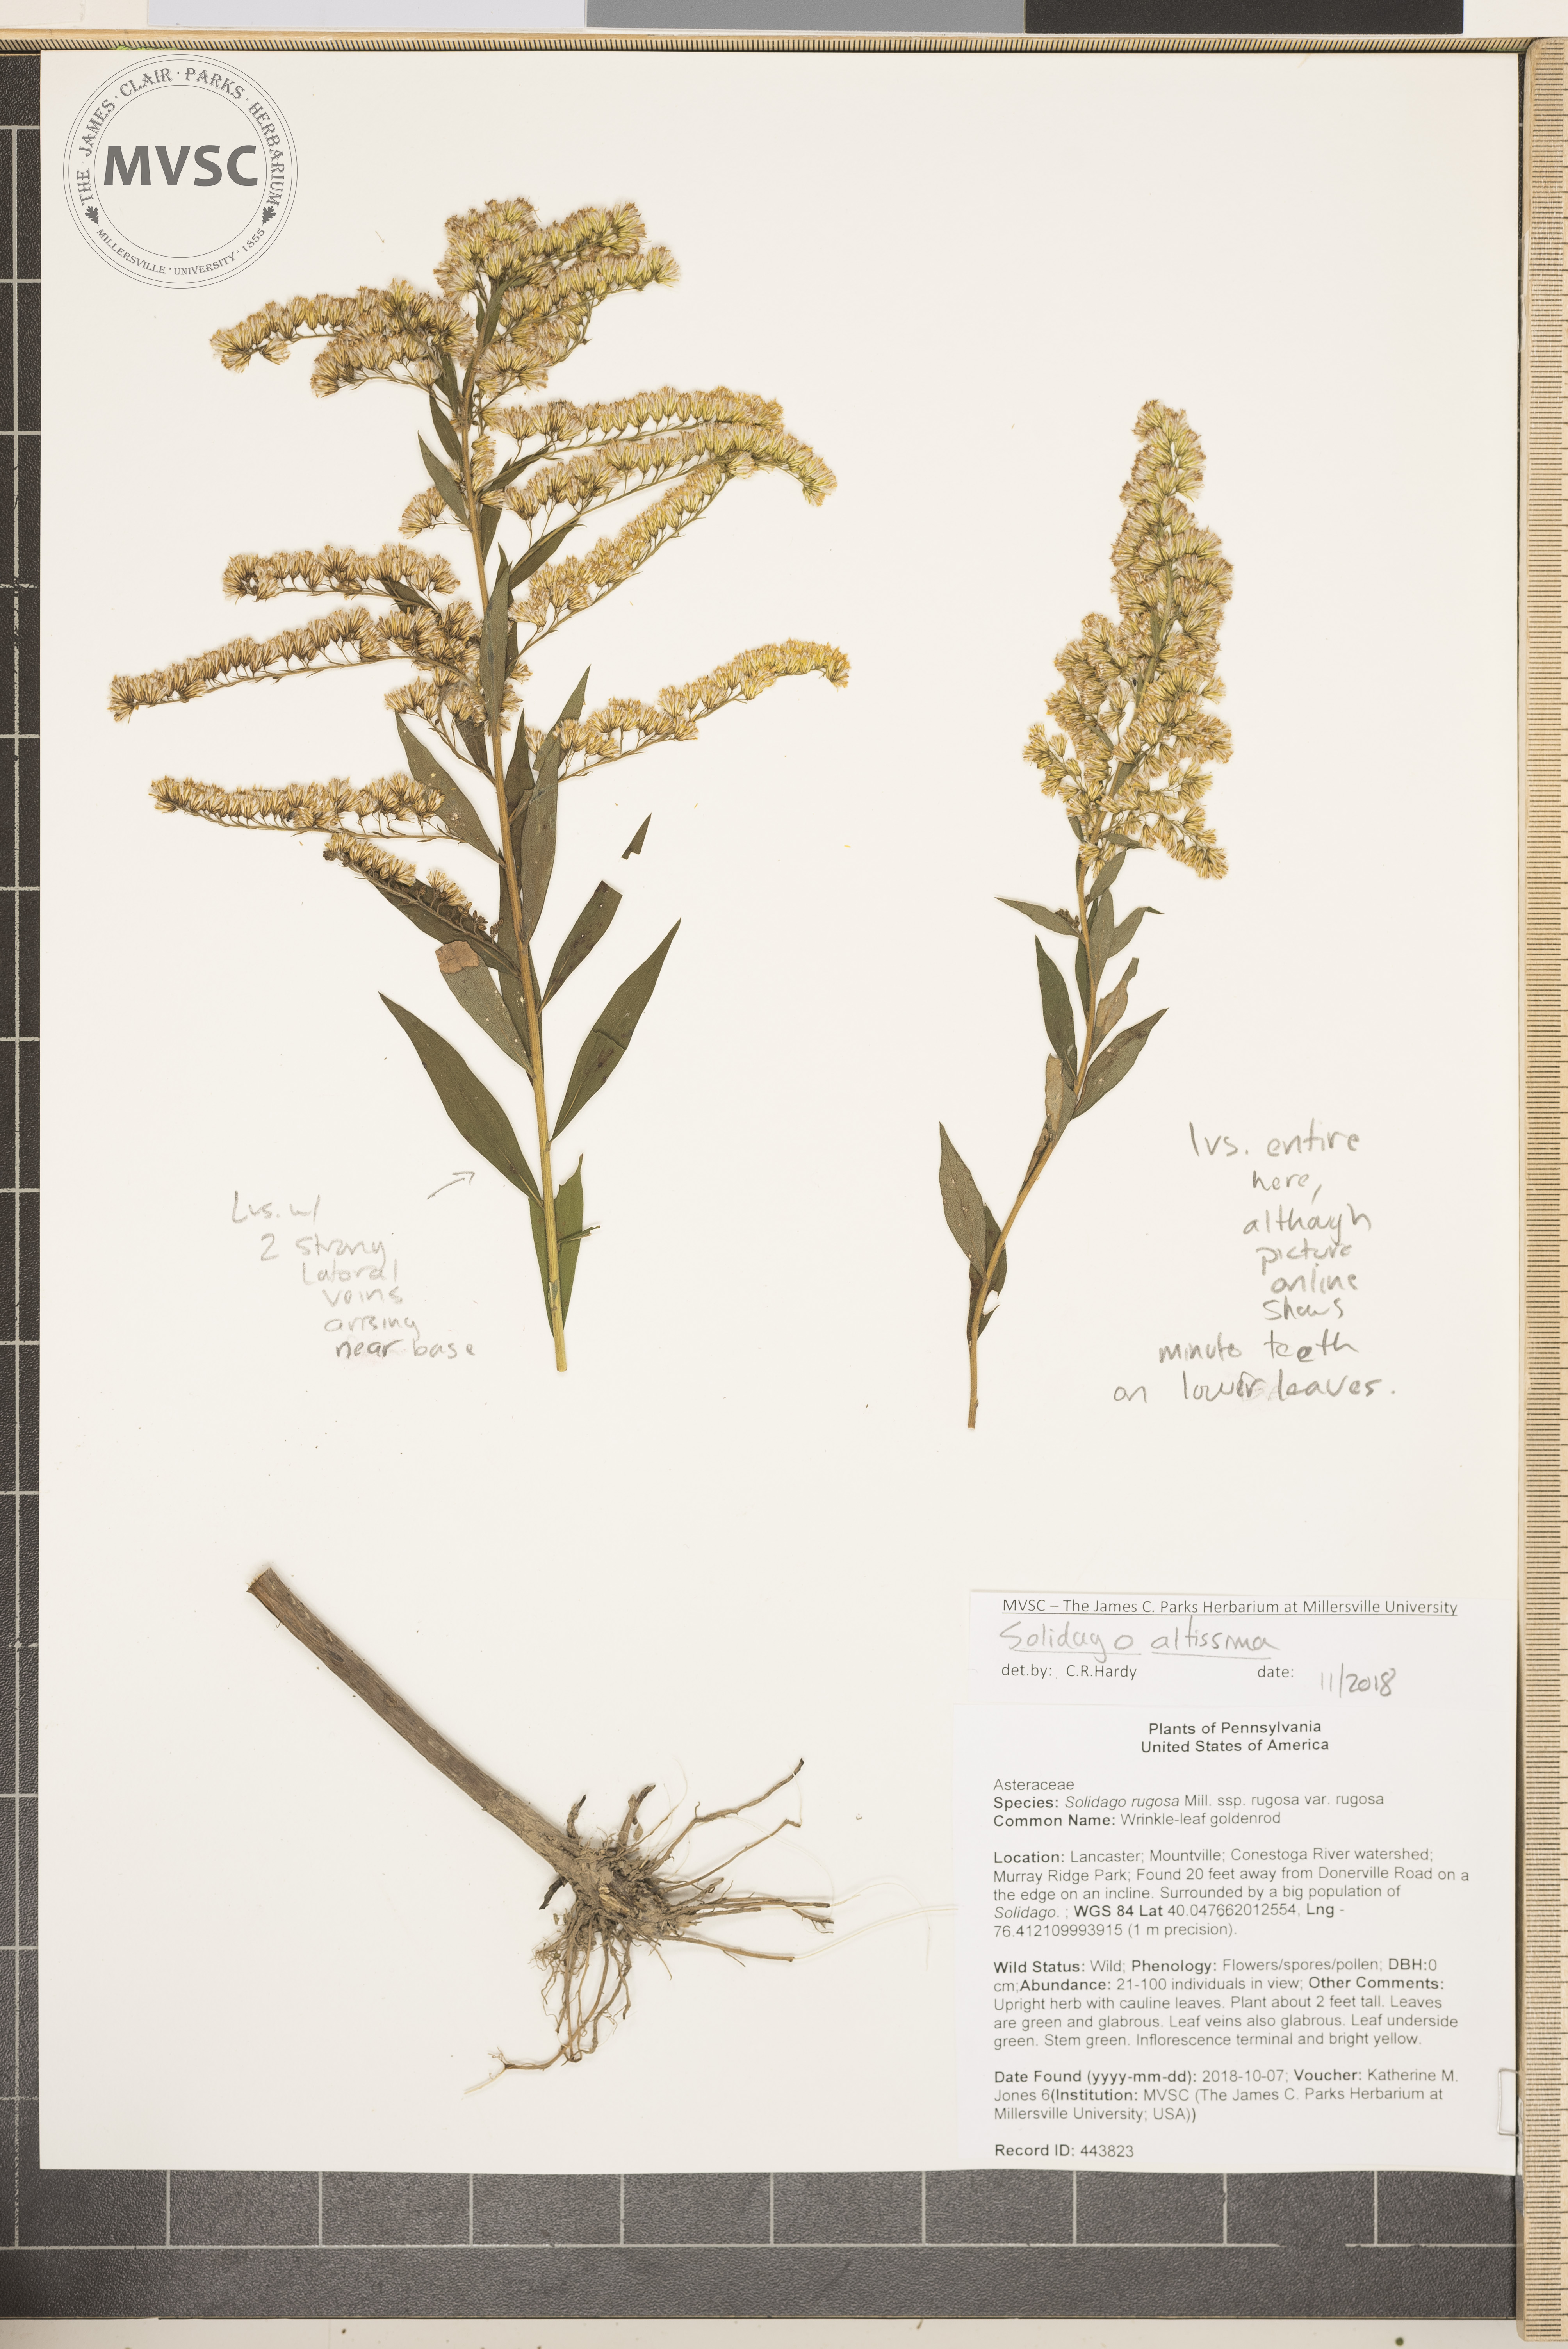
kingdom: Plantae
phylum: Tracheophyta
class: Magnoliopsida
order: Asterales
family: Asteraceae
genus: Solidago
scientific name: Solidago altissima
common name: Late Goldenrod
